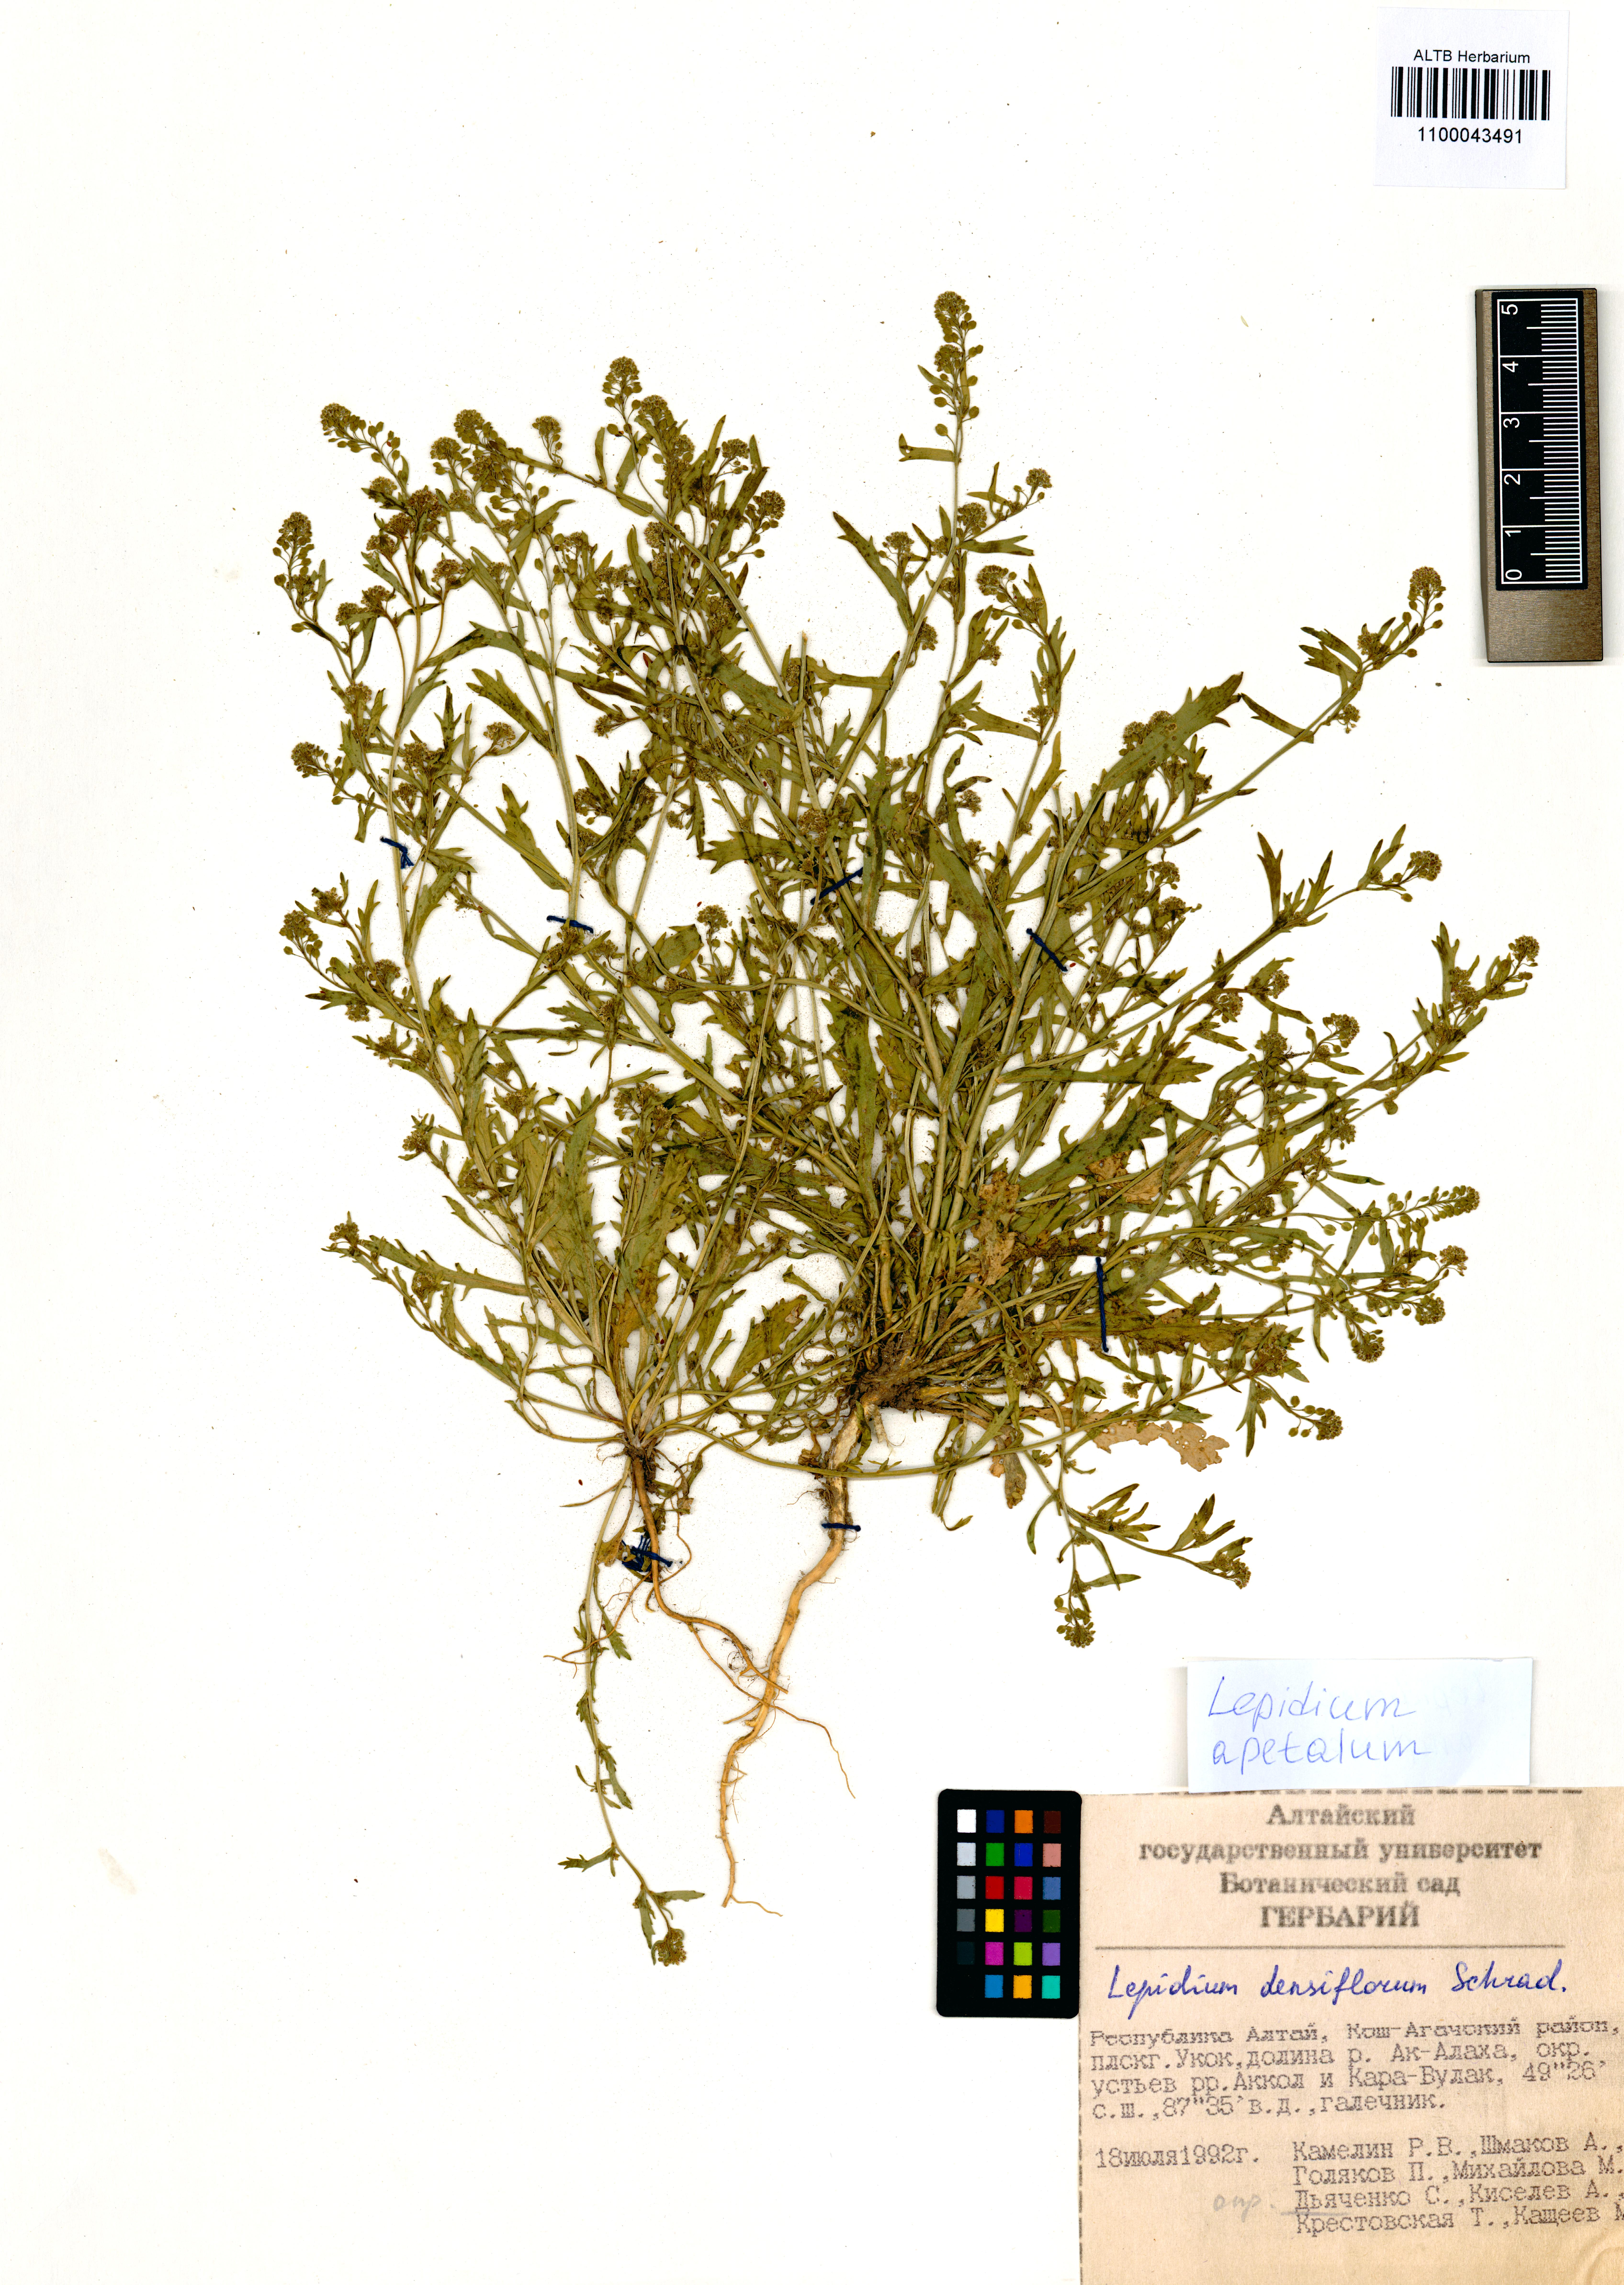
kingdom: Plantae
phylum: Tracheophyta
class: Magnoliopsida
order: Brassicales
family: Brassicaceae
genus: Lepidium
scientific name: Lepidium apetalum
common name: Pepperweed
